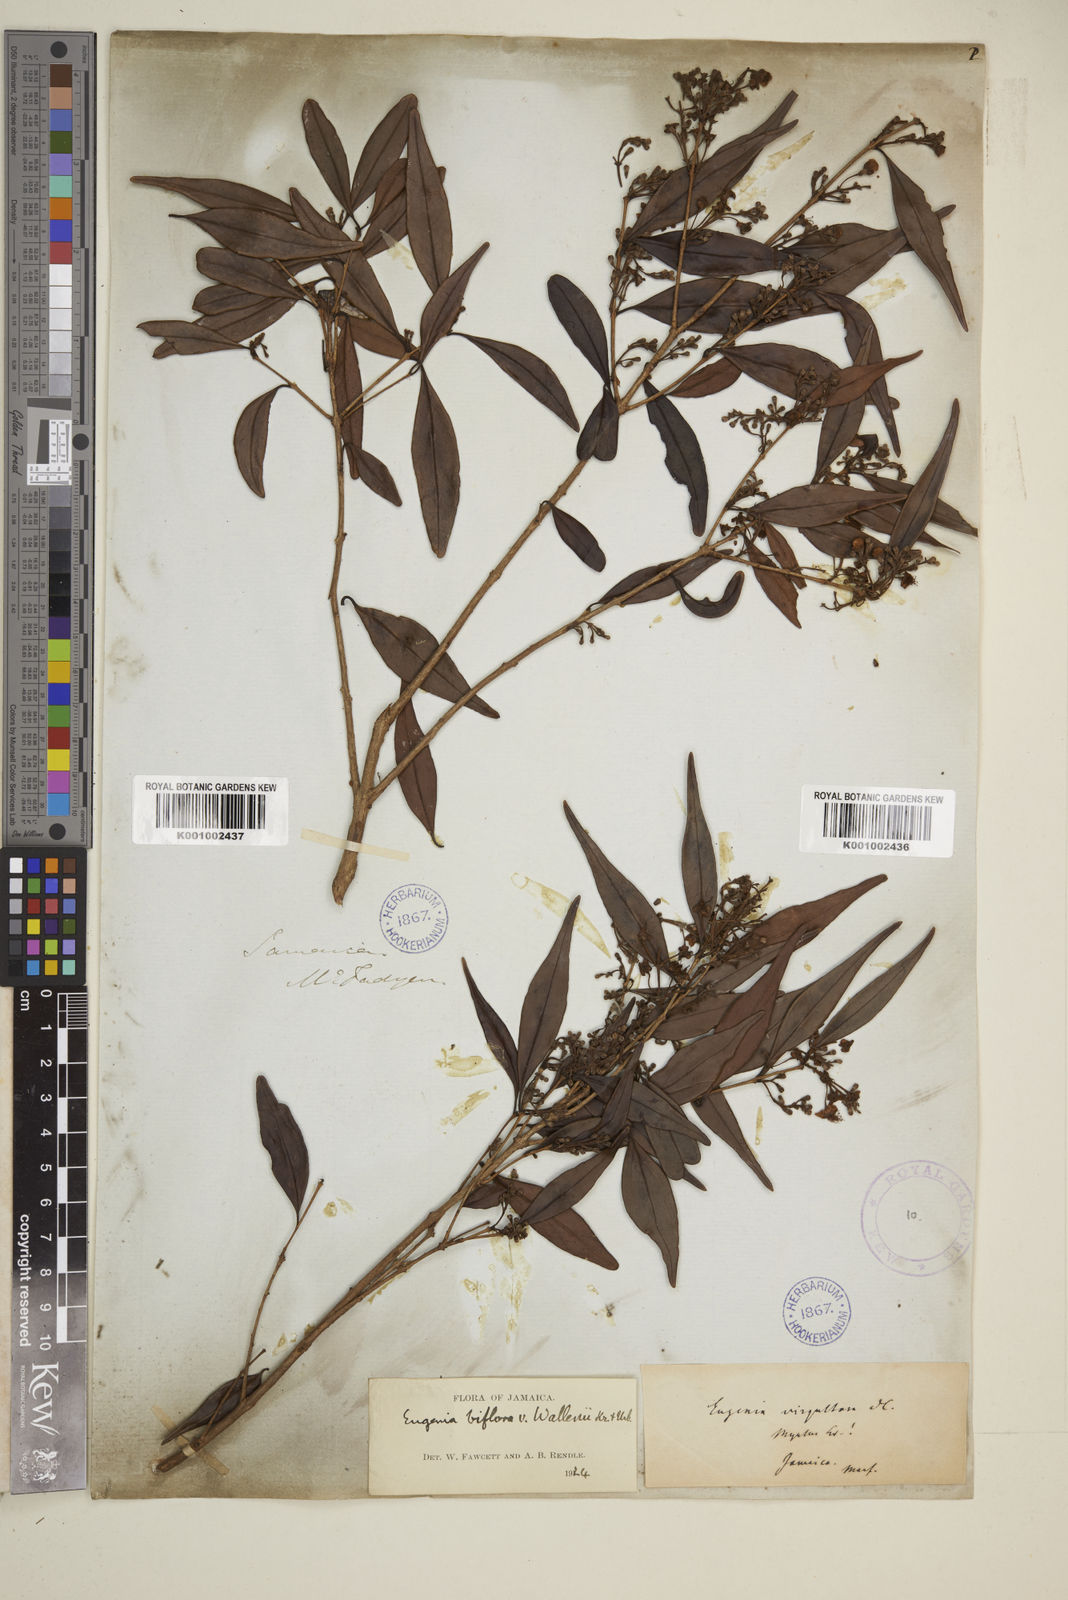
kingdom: Plantae
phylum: Tracheophyta
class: Magnoliopsida
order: Myrtales
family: Myrtaceae
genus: Eugenia
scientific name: Eugenia biflora
